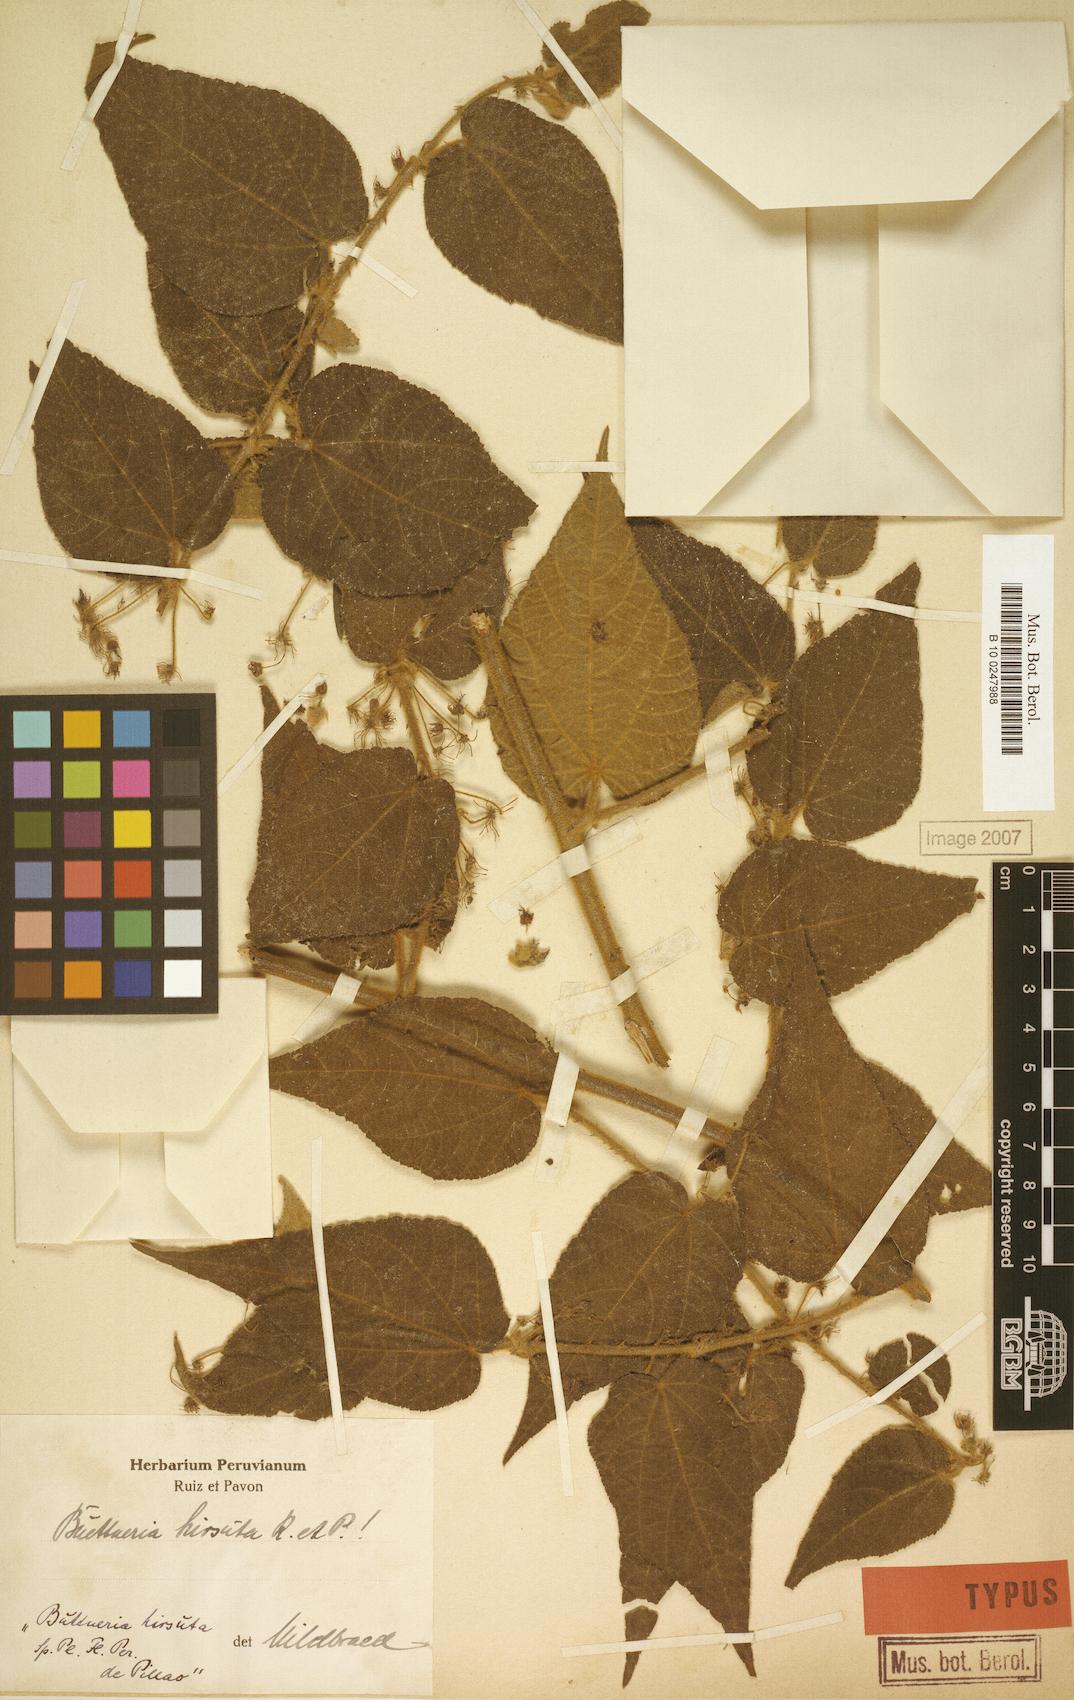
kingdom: Plantae
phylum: Tracheophyta
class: Magnoliopsida
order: Malvales
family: Malvaceae
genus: Byttneria
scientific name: Byttneria hirsuta
